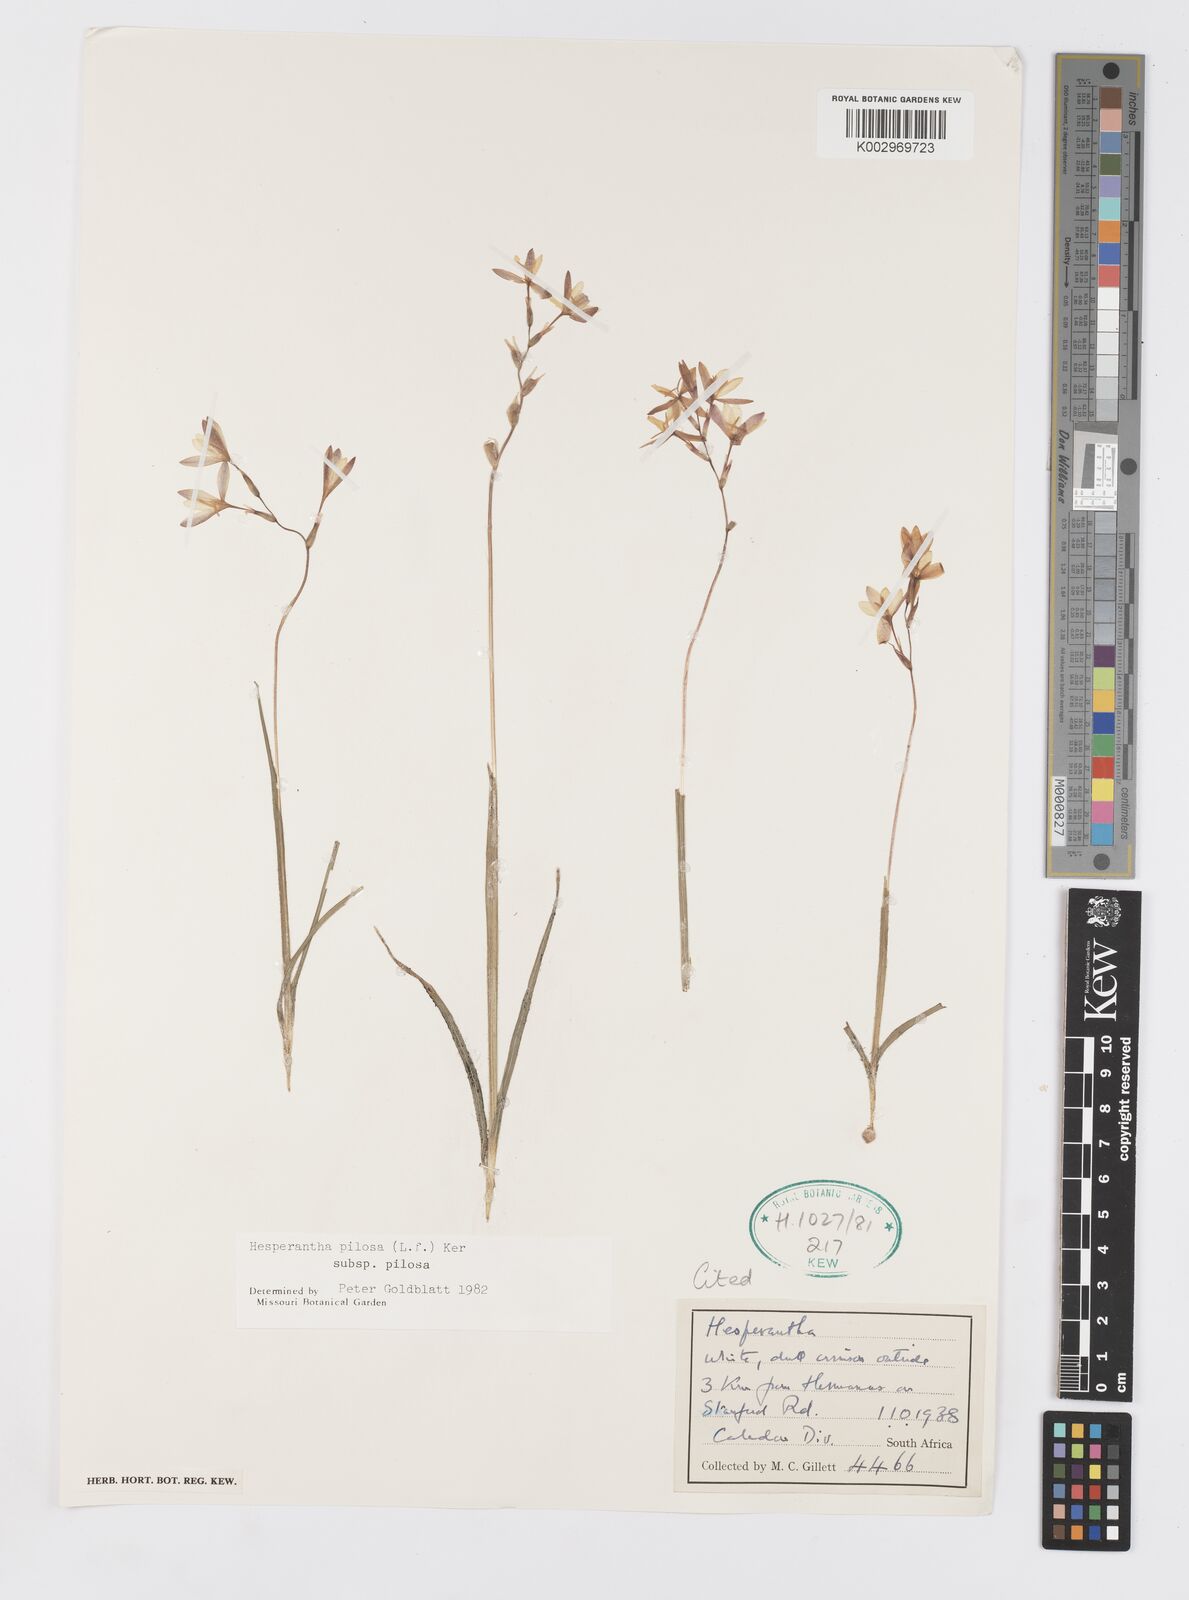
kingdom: Plantae
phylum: Tracheophyta
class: Liliopsida
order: Asparagales
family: Iridaceae
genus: Hesperantha
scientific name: Hesperantha pilosa
